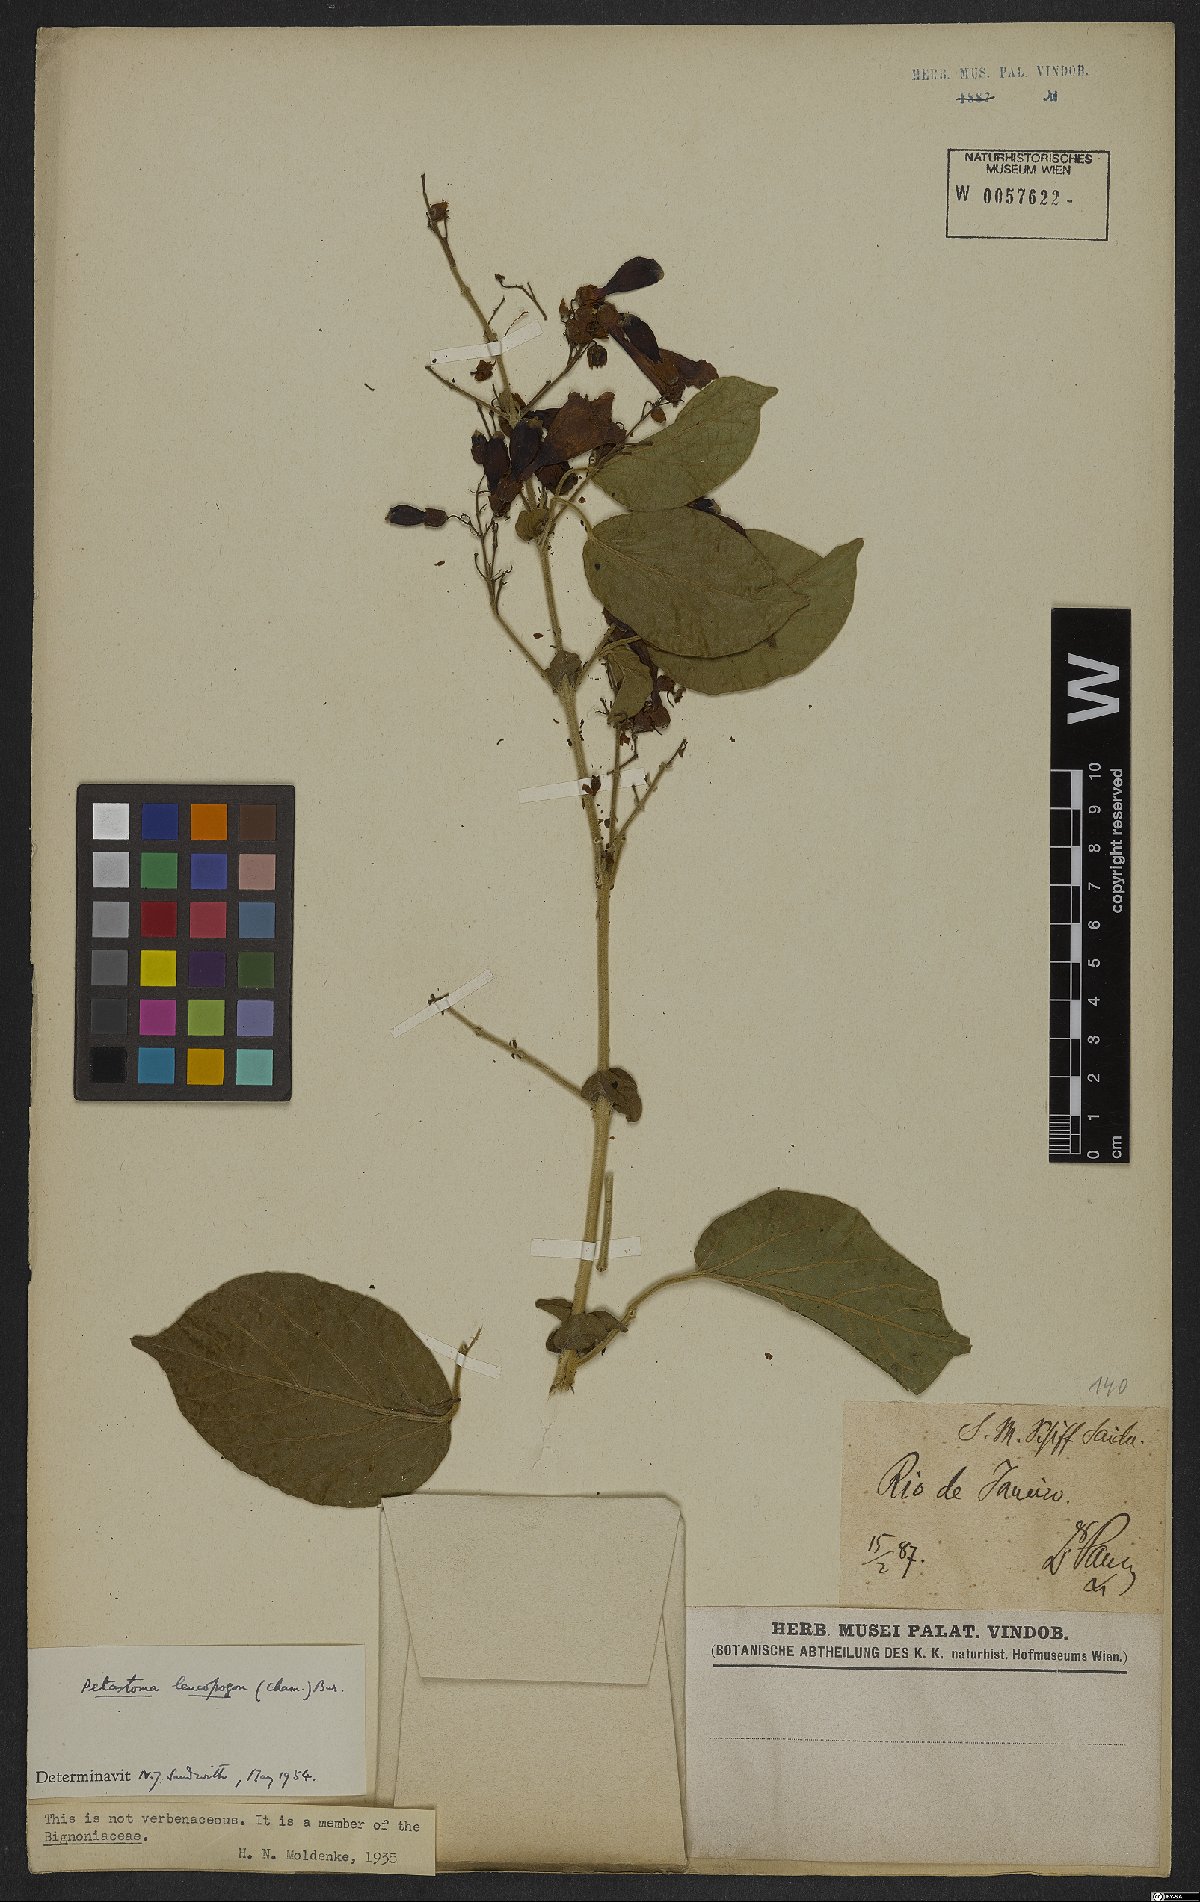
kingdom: Plantae
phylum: Tracheophyta
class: Magnoliopsida
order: Lamiales
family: Bignoniaceae
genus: Fridericia
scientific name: Fridericia leucopogon
